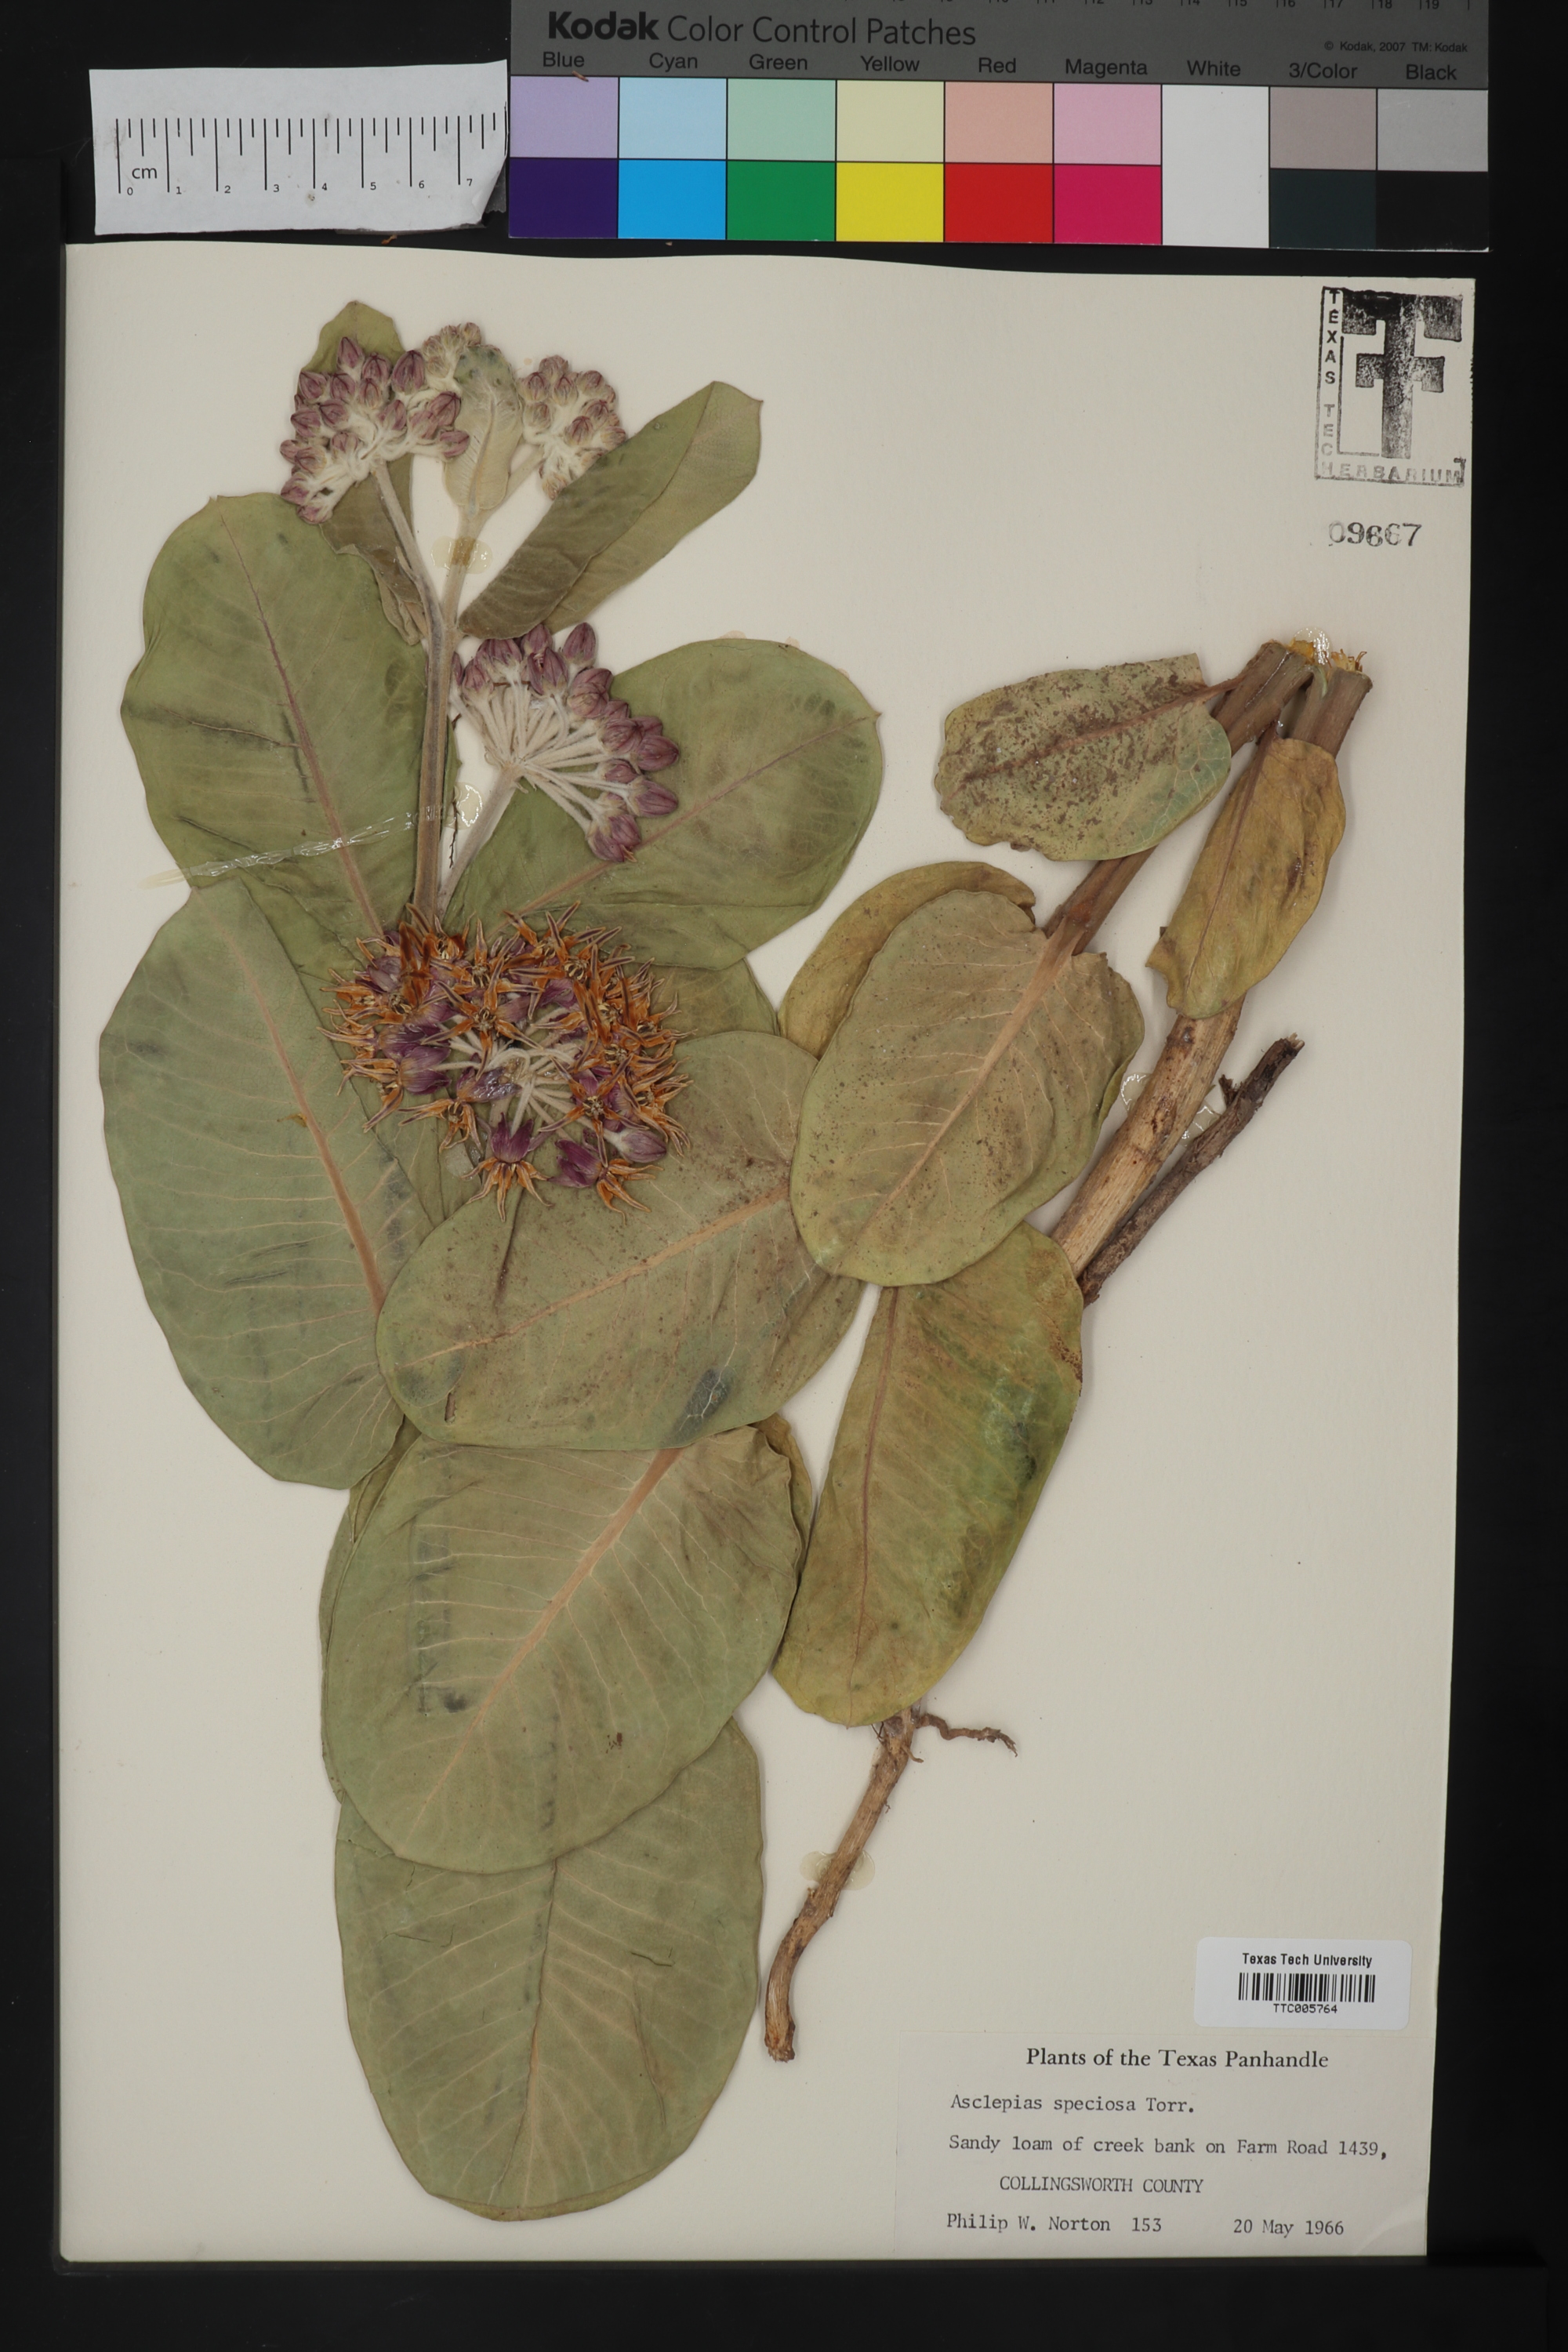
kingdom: Plantae
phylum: Tracheophyta
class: Magnoliopsida
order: Gentianales
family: Apocynaceae
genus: Asclepias
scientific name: Asclepias speciosa
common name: Showy milkweed
